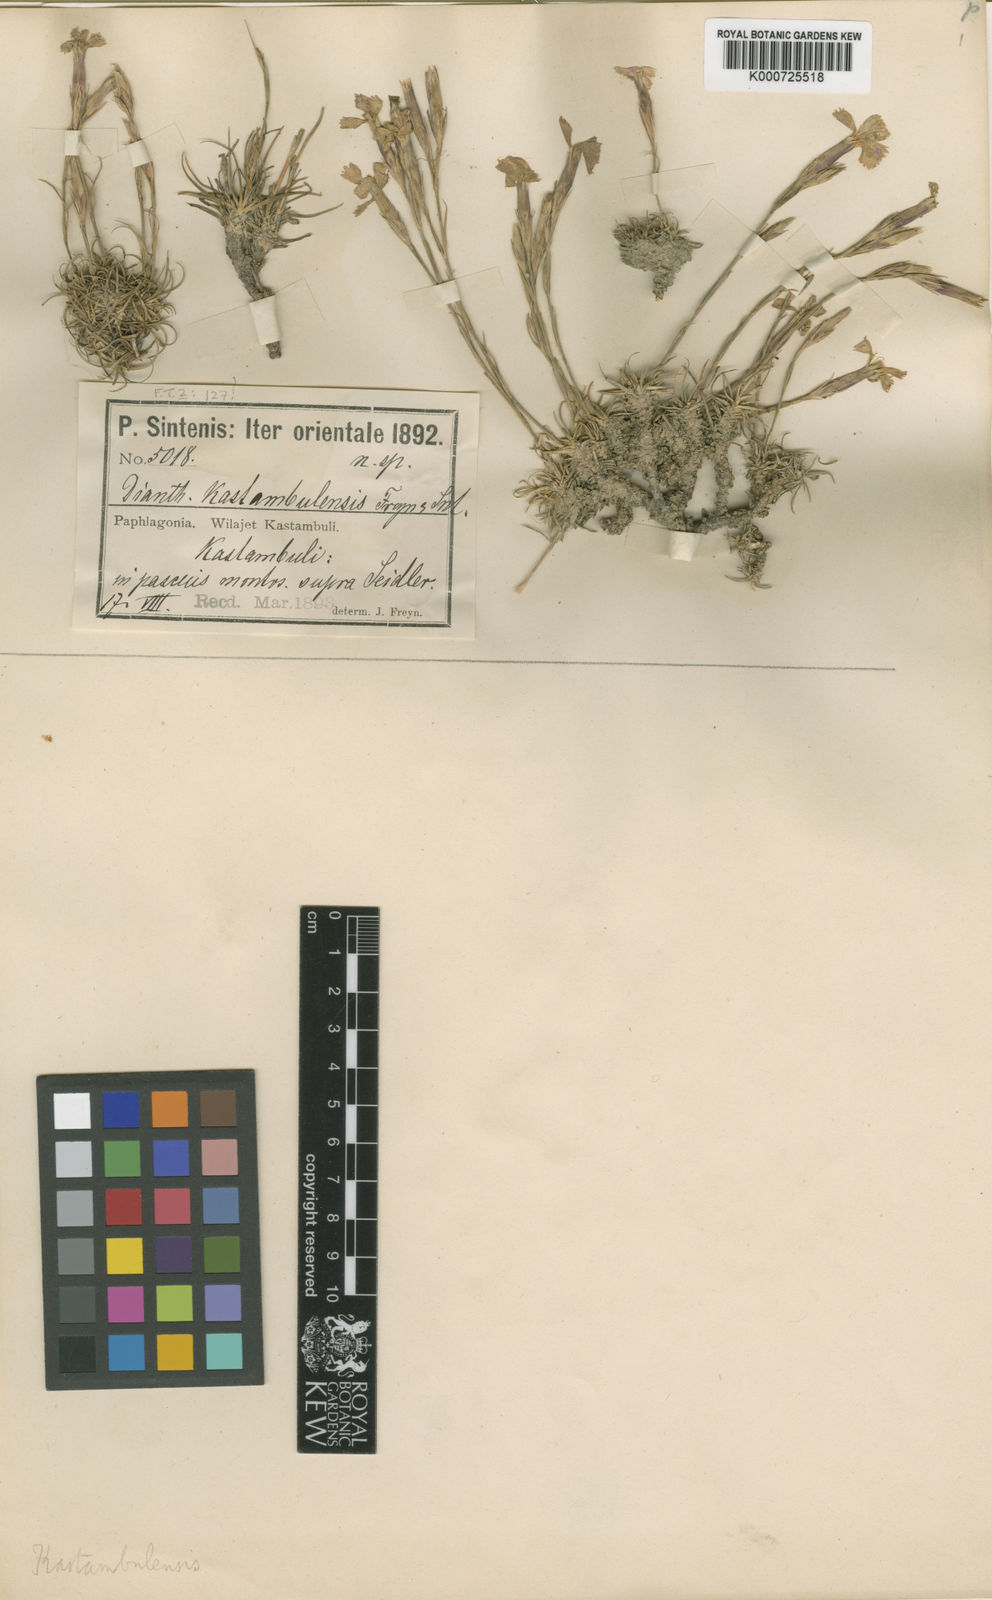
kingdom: Plantae
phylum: Tracheophyta
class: Magnoliopsida
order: Caryophyllales
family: Caryophyllaceae
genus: Dianthus
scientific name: Dianthus kastembeluensis
